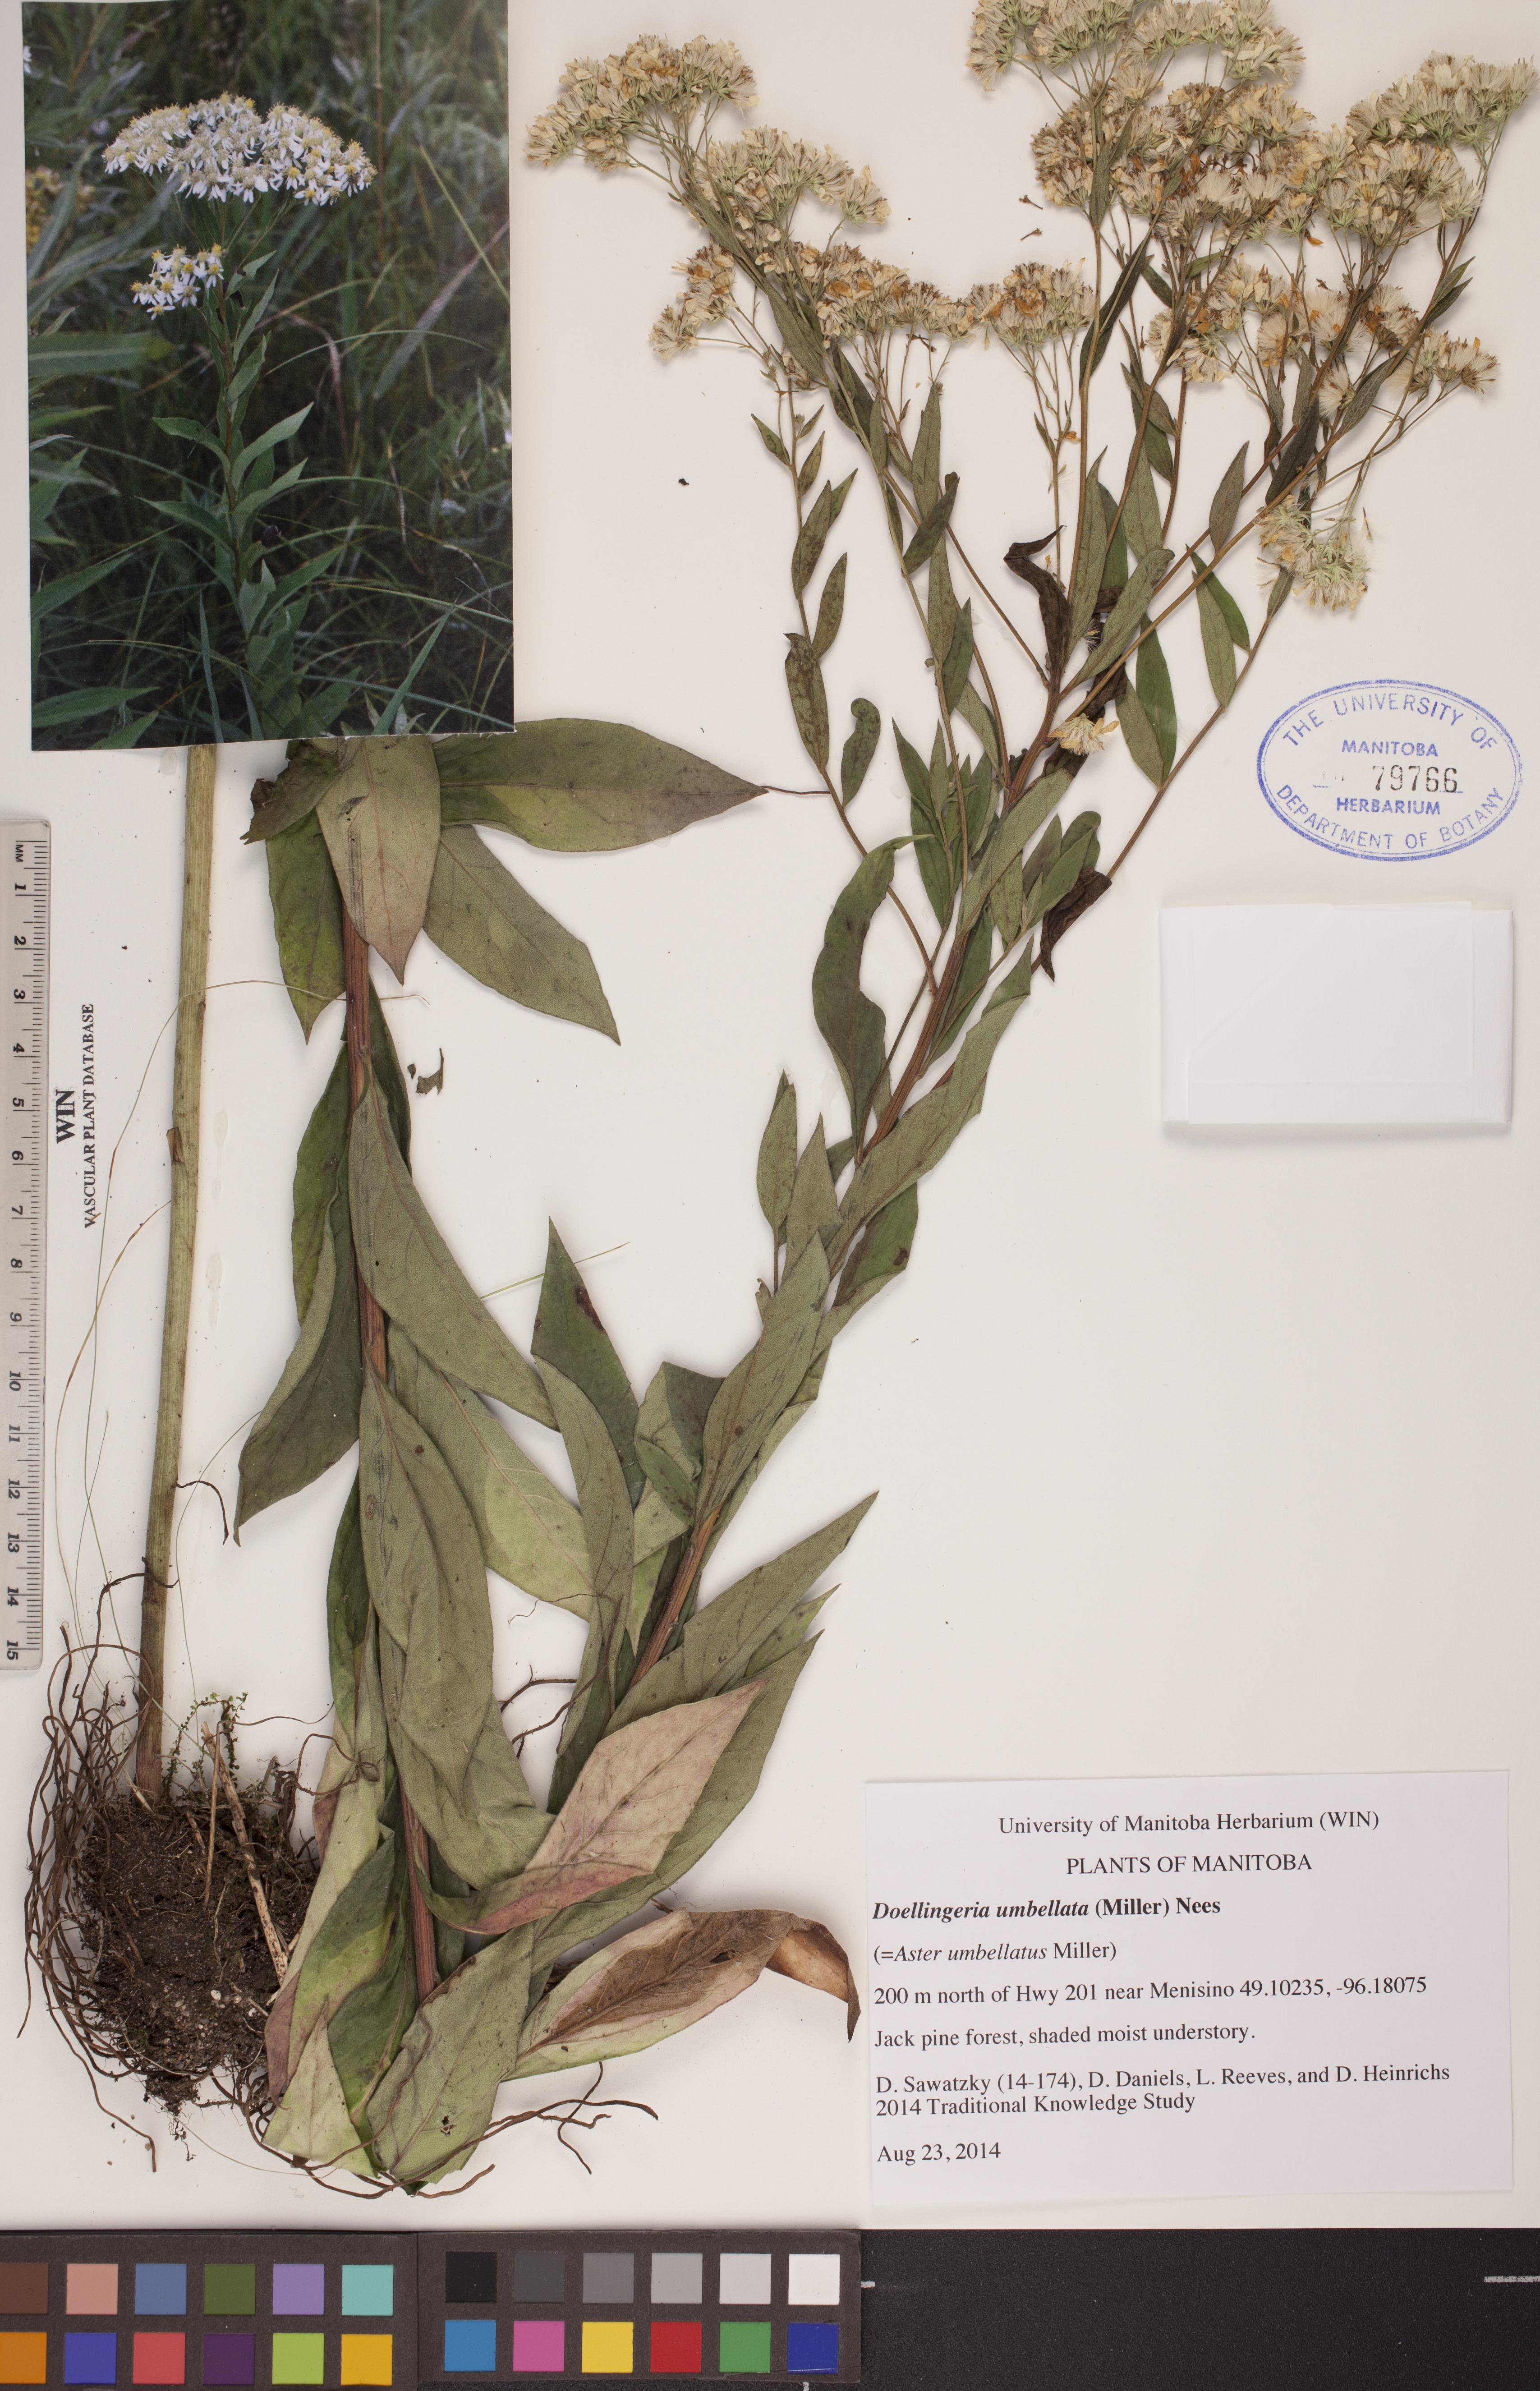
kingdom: Plantae
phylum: Tracheophyta
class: Magnoliopsida
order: Asterales
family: Asteraceae
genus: Doellingeria
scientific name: Doellingeria umbellata
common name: Flat-top white aster
